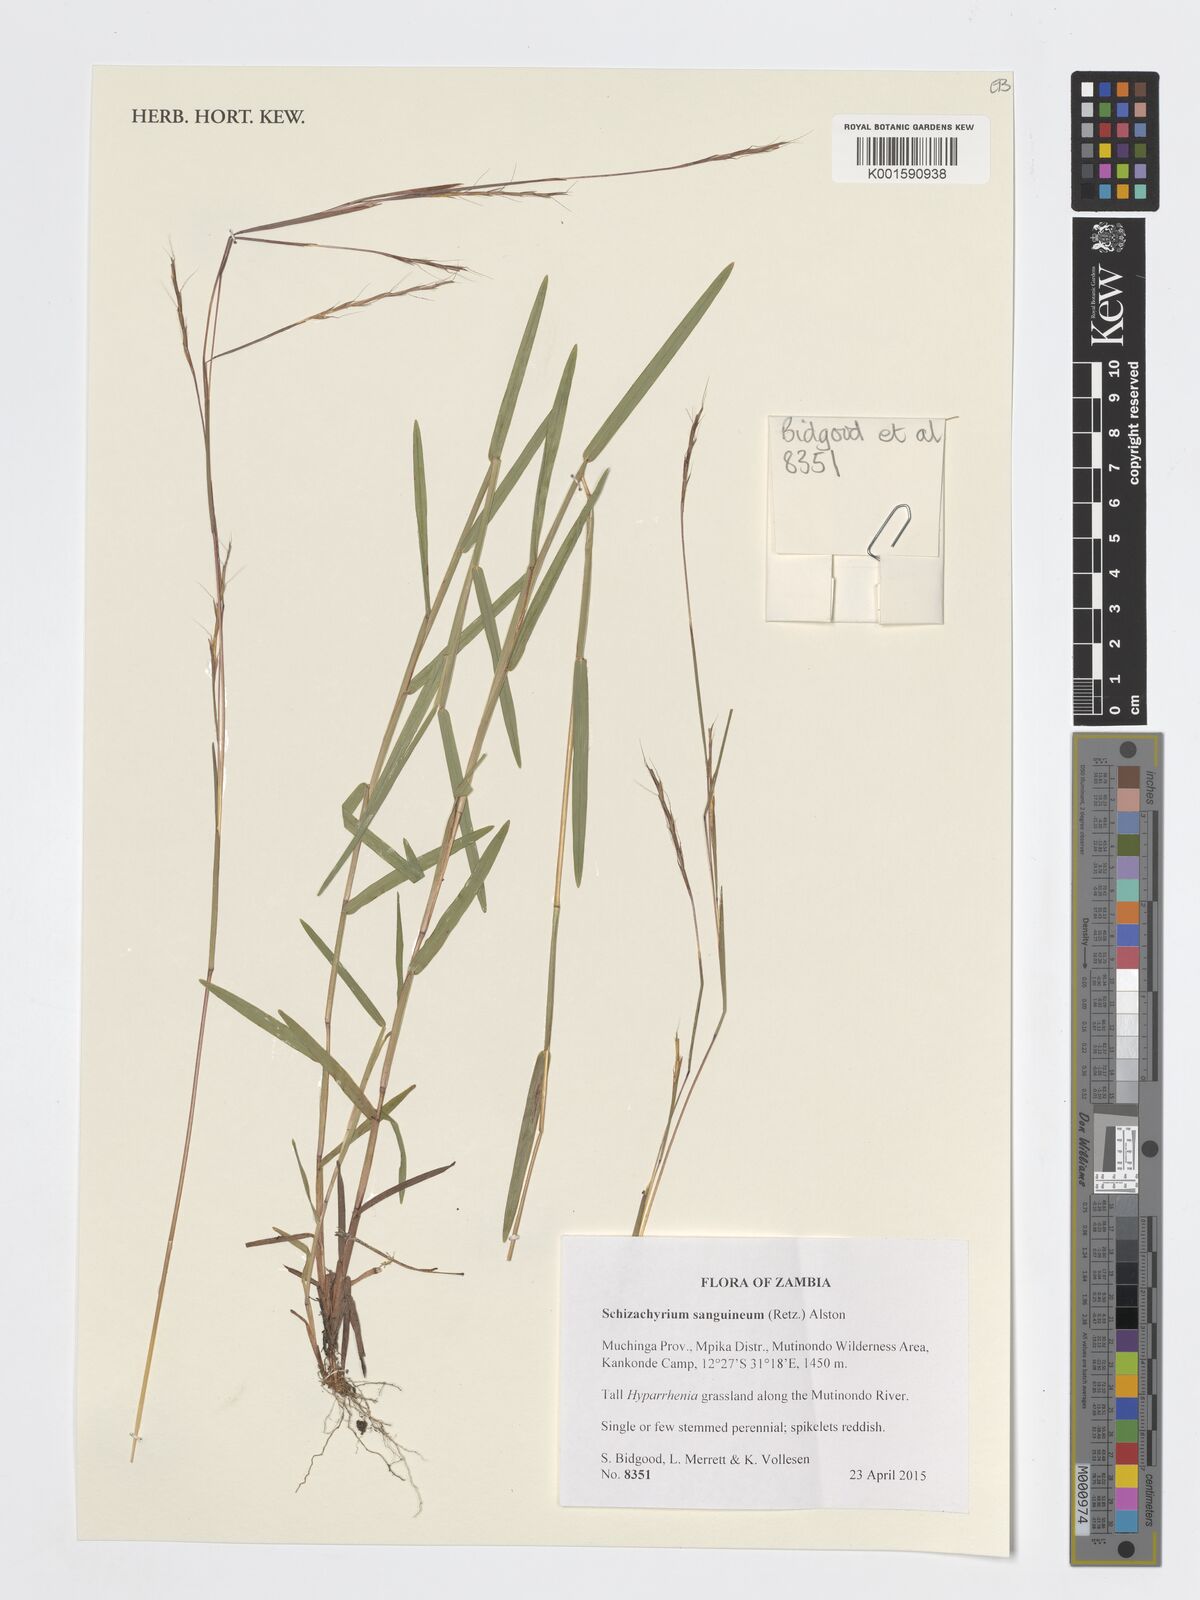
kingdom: Plantae
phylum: Tracheophyta
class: Liliopsida
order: Poales
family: Poaceae
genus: Schizachyrium
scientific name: Schizachyrium sanguineum
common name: Crimson bluestem
